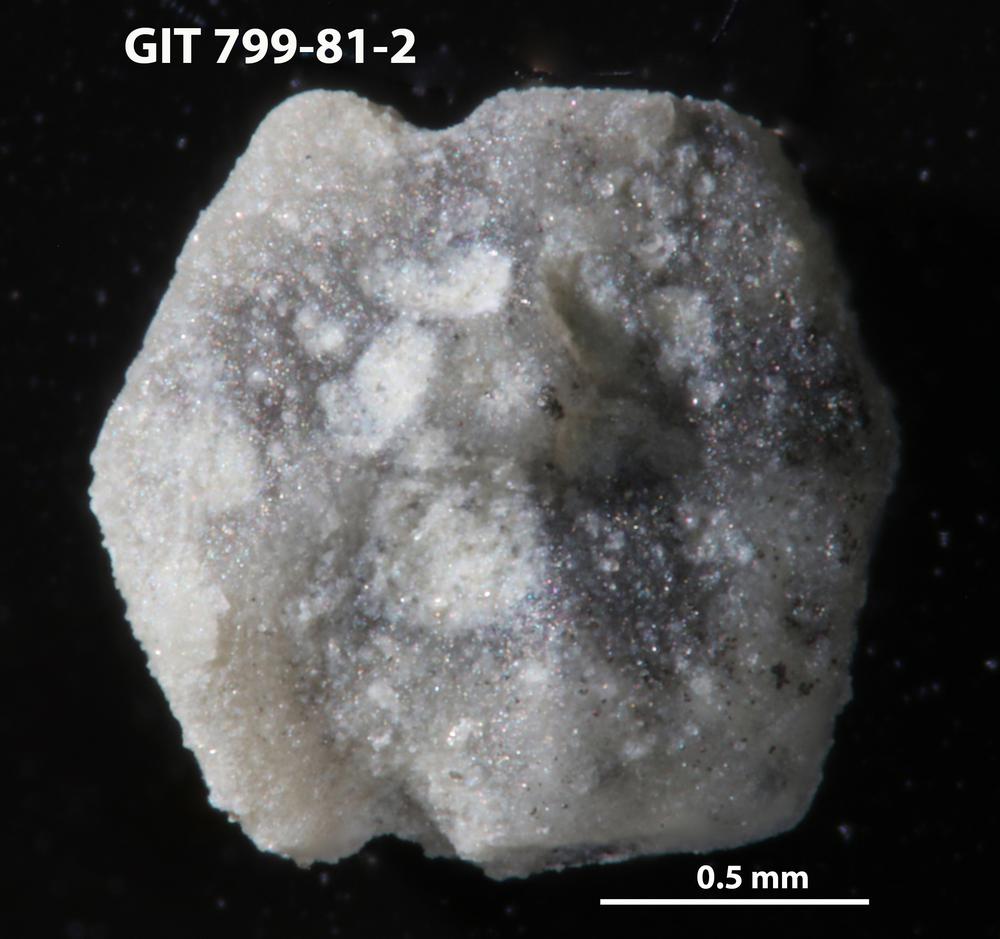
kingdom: Animalia
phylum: Echinodermata
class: Echinoidea
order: Bothriocidaroida
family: Bothriocidaridae
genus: Neobothriocidaris
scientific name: Neobothriocidaris
